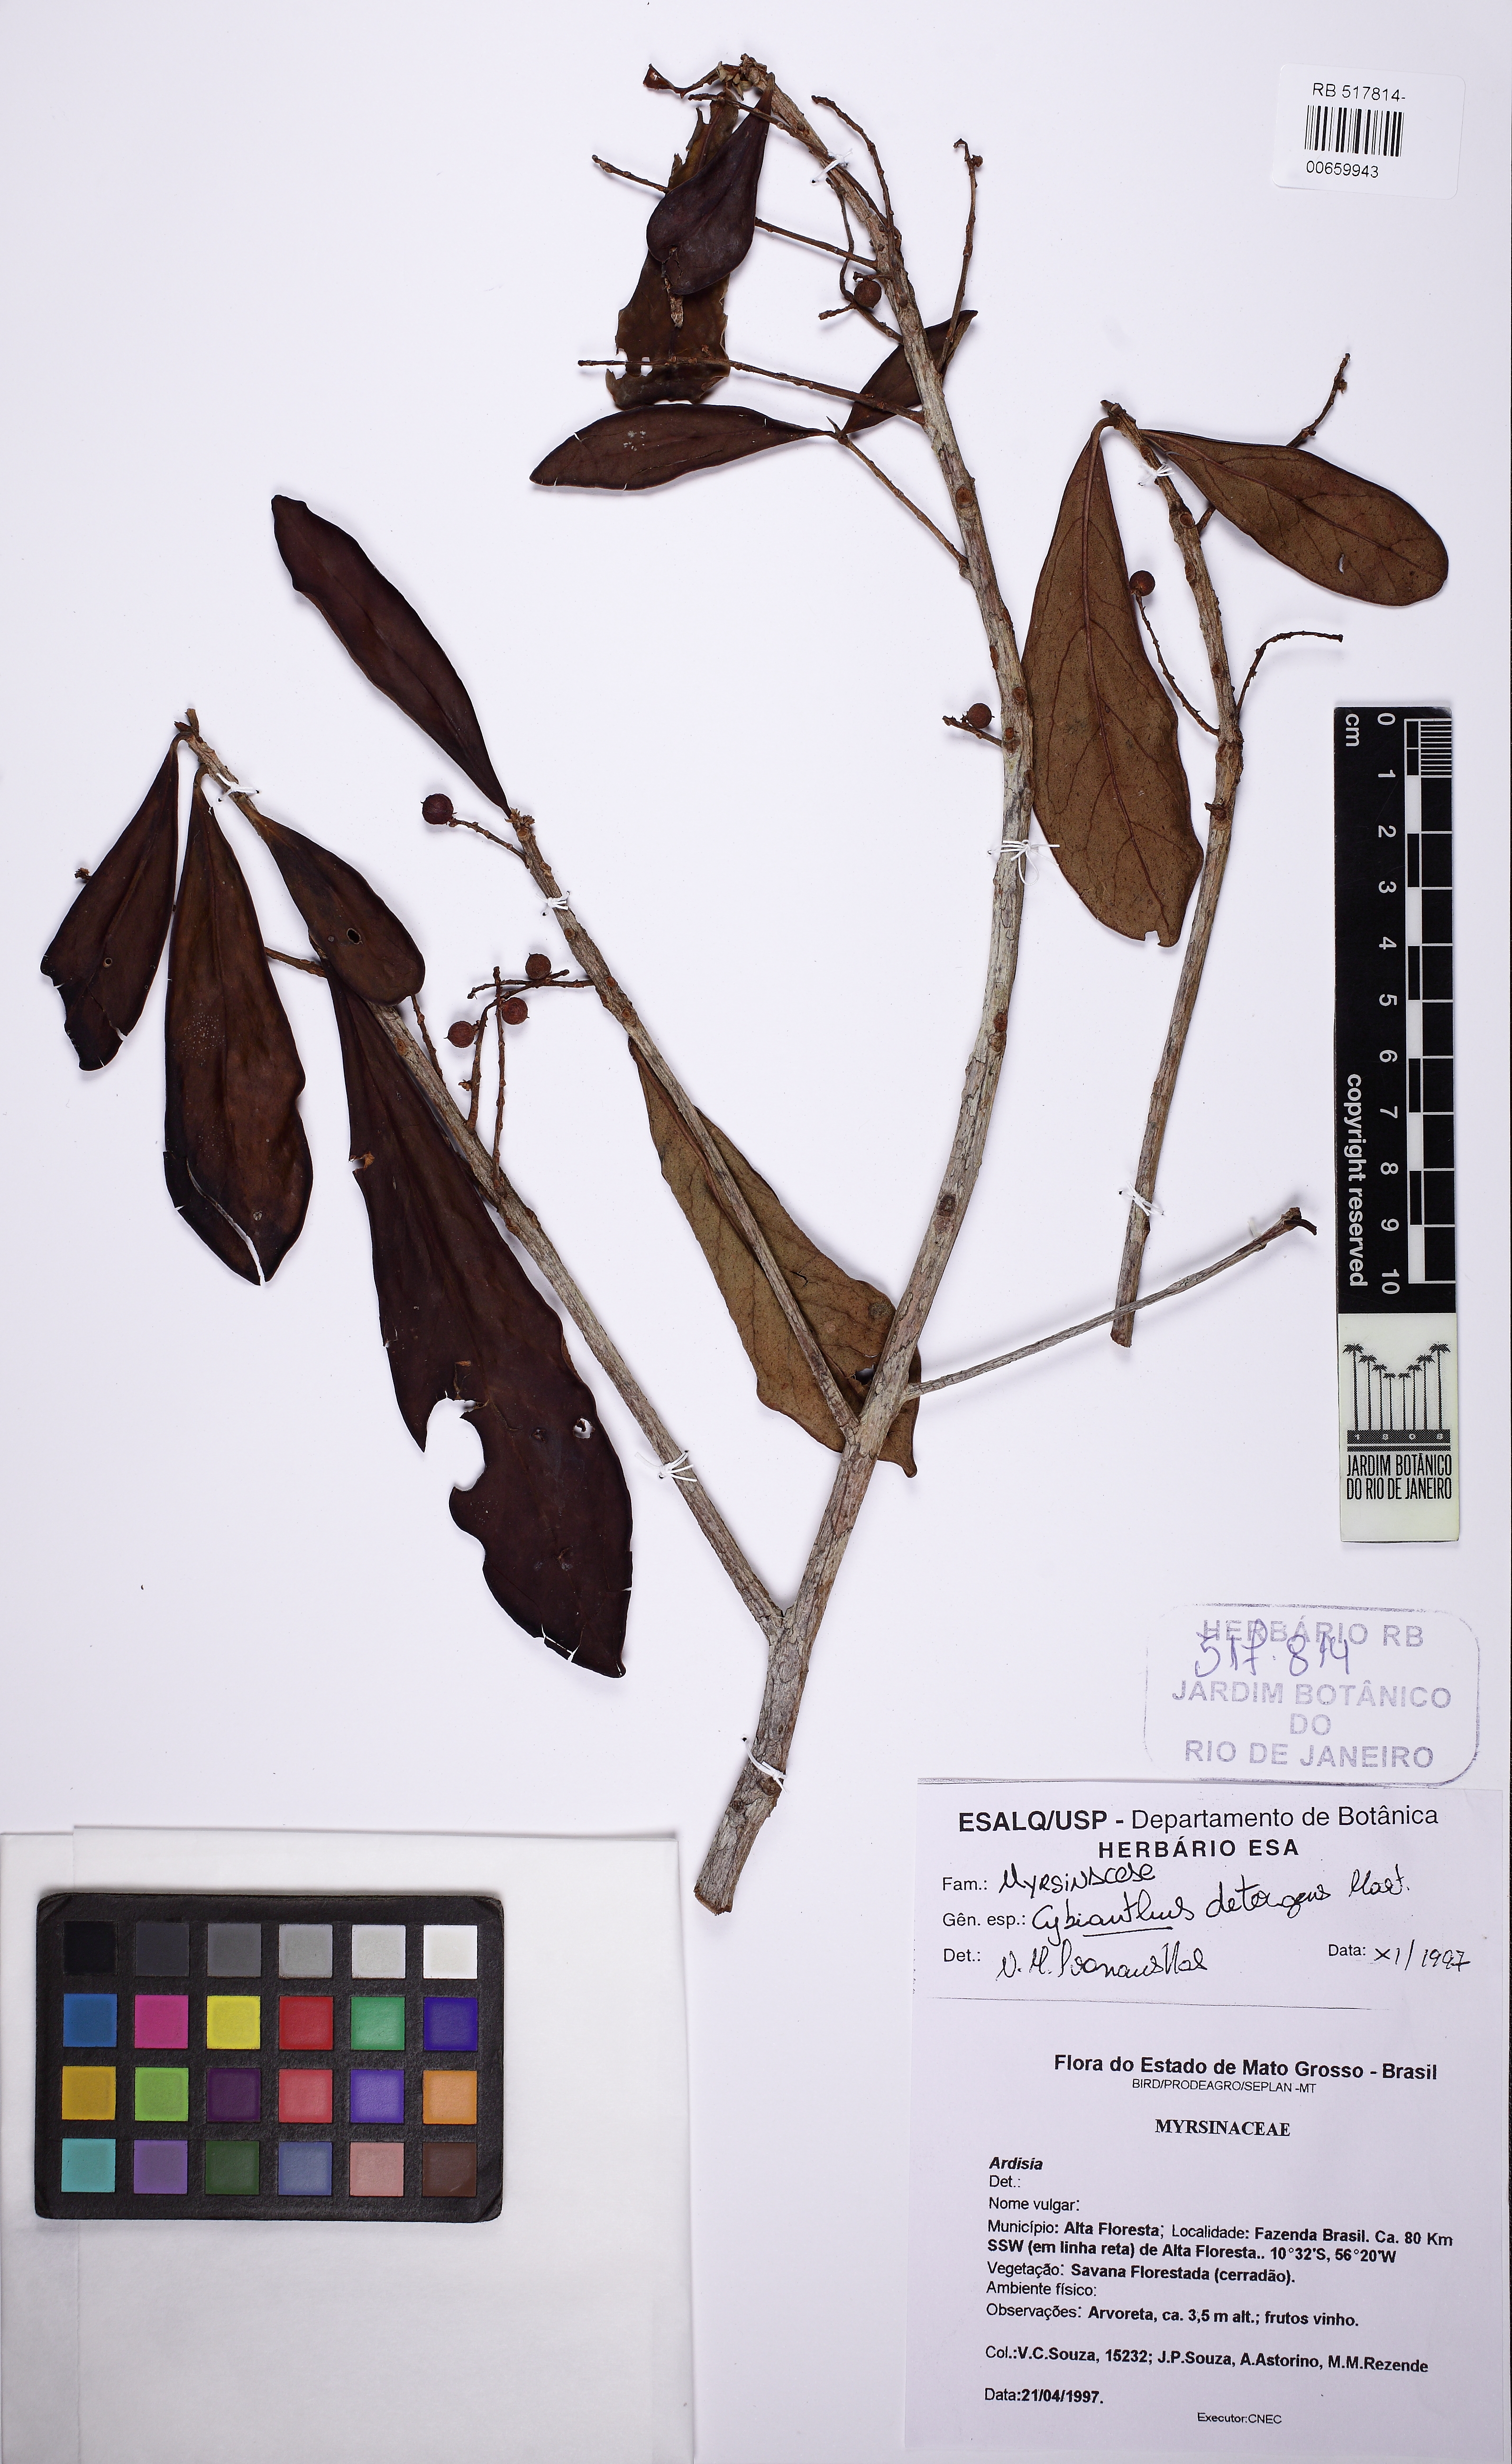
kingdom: Plantae
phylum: Tracheophyta
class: Magnoliopsida
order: Ericales
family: Primulaceae
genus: Cybianthus
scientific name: Cybianthus detergens
